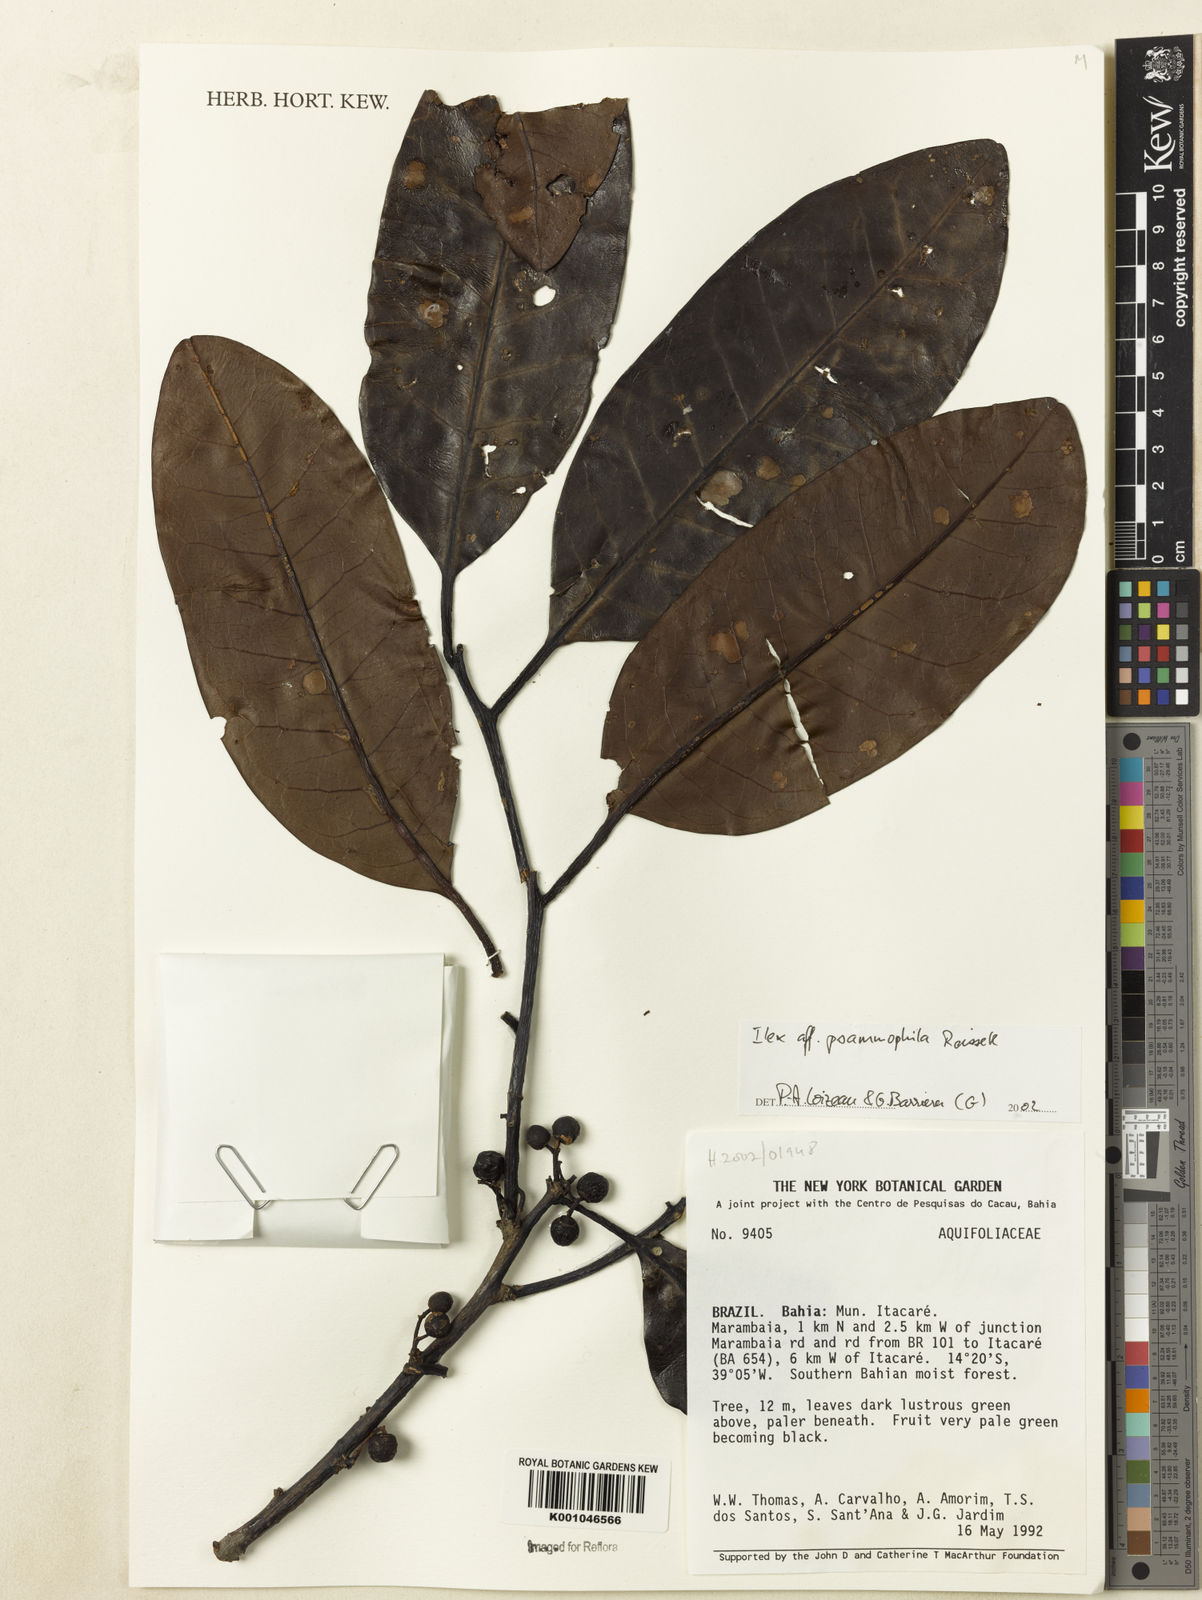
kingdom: Plantae
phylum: Tracheophyta
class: Magnoliopsida
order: Aquifoliales
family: Aquifoliaceae
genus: Ilex
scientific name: Ilex psammophila
